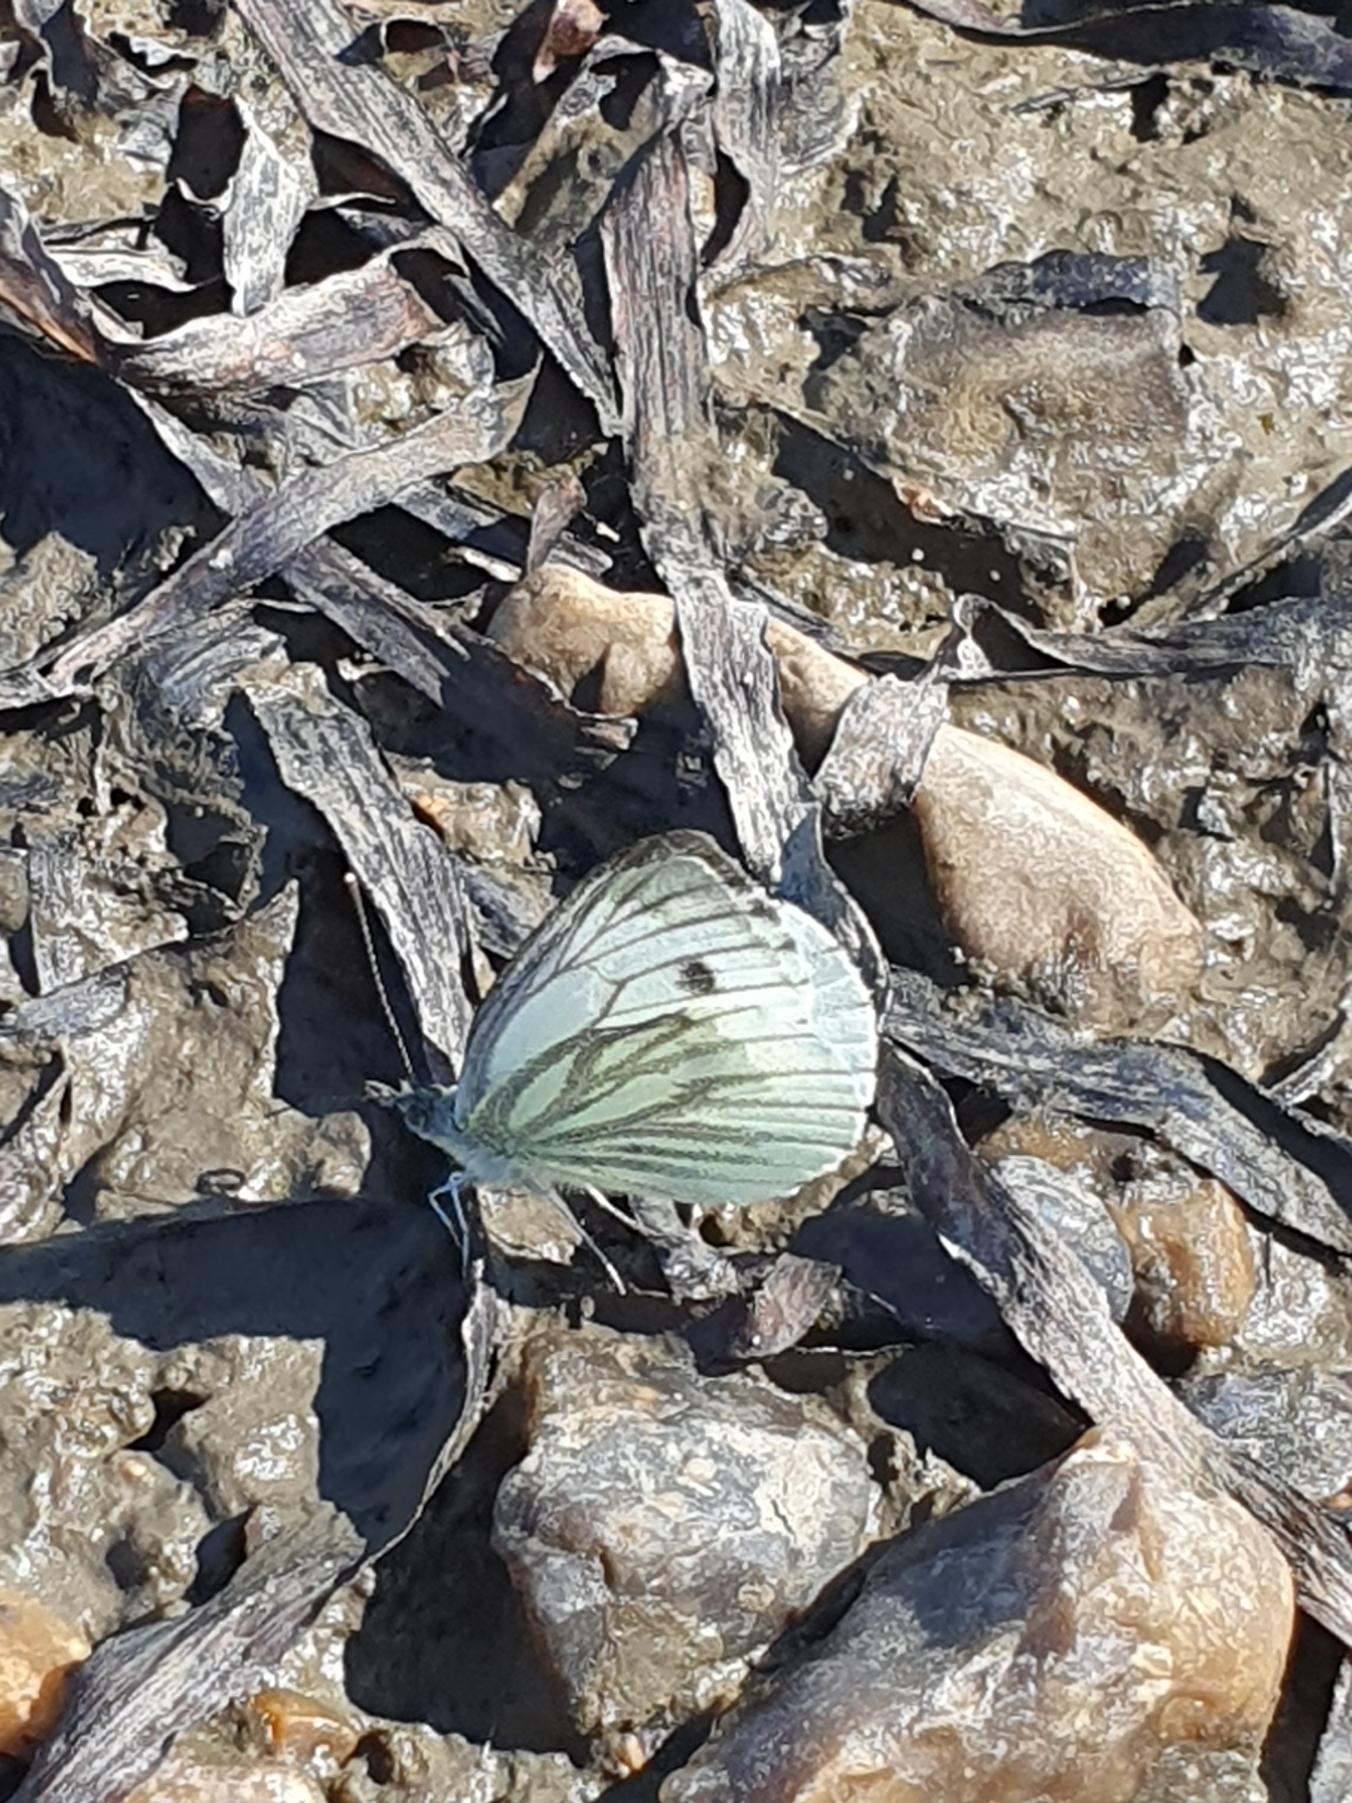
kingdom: Animalia
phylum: Arthropoda
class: Insecta
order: Lepidoptera
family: Pieridae
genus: Pieris
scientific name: Pieris napi
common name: Grønåret kålsommerfugl
